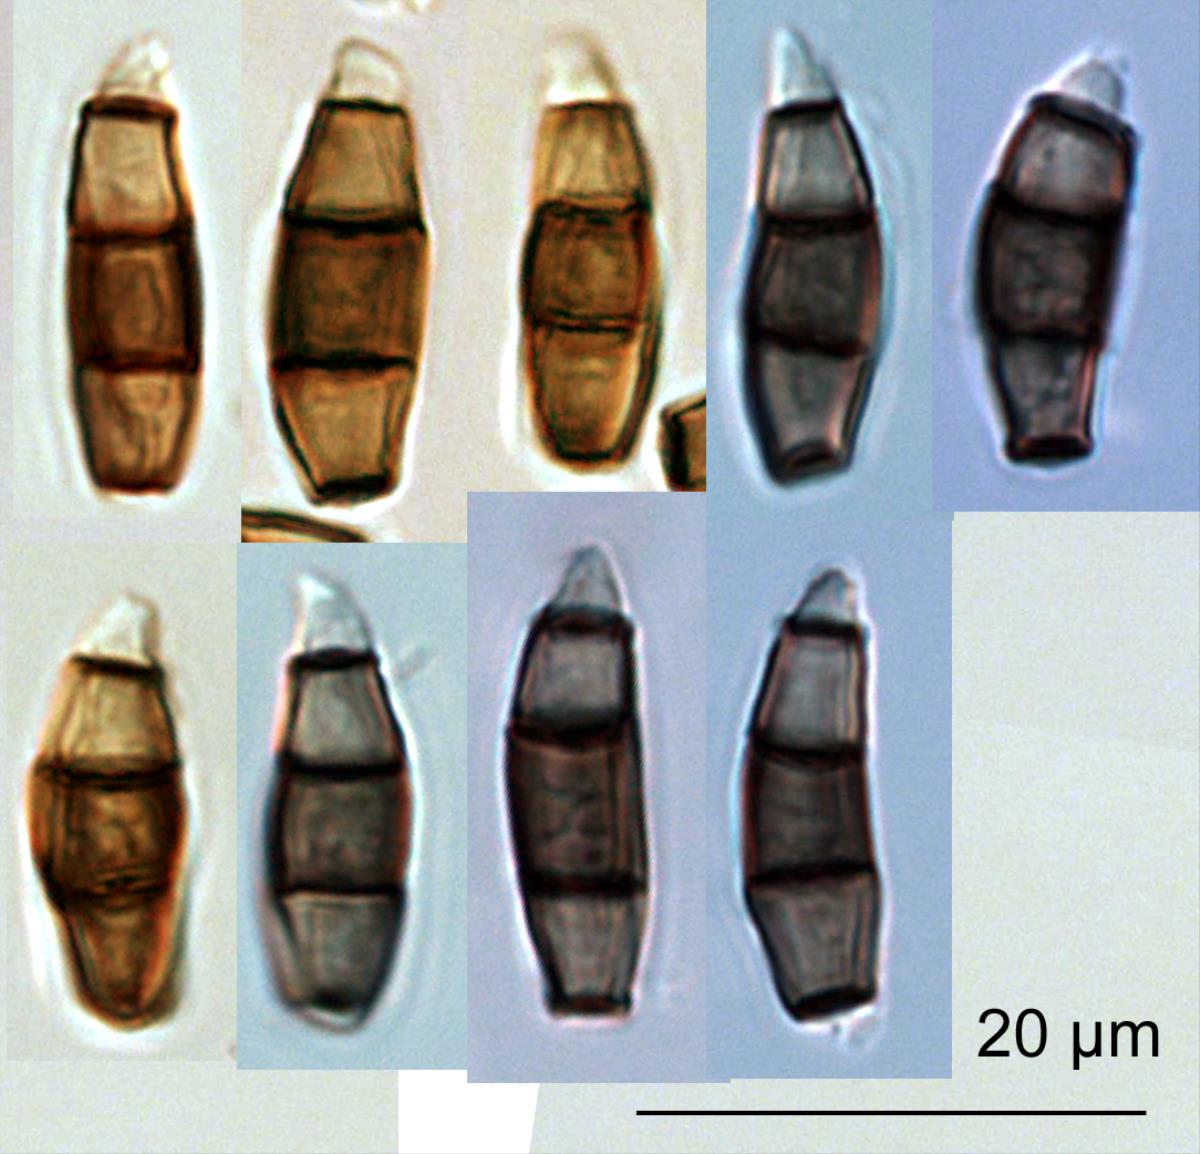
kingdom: Fungi
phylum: Ascomycota
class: Sordariomycetes
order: Amphisphaeriales
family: Bartaliniaceae
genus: Truncatella
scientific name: Truncatella hartigii
